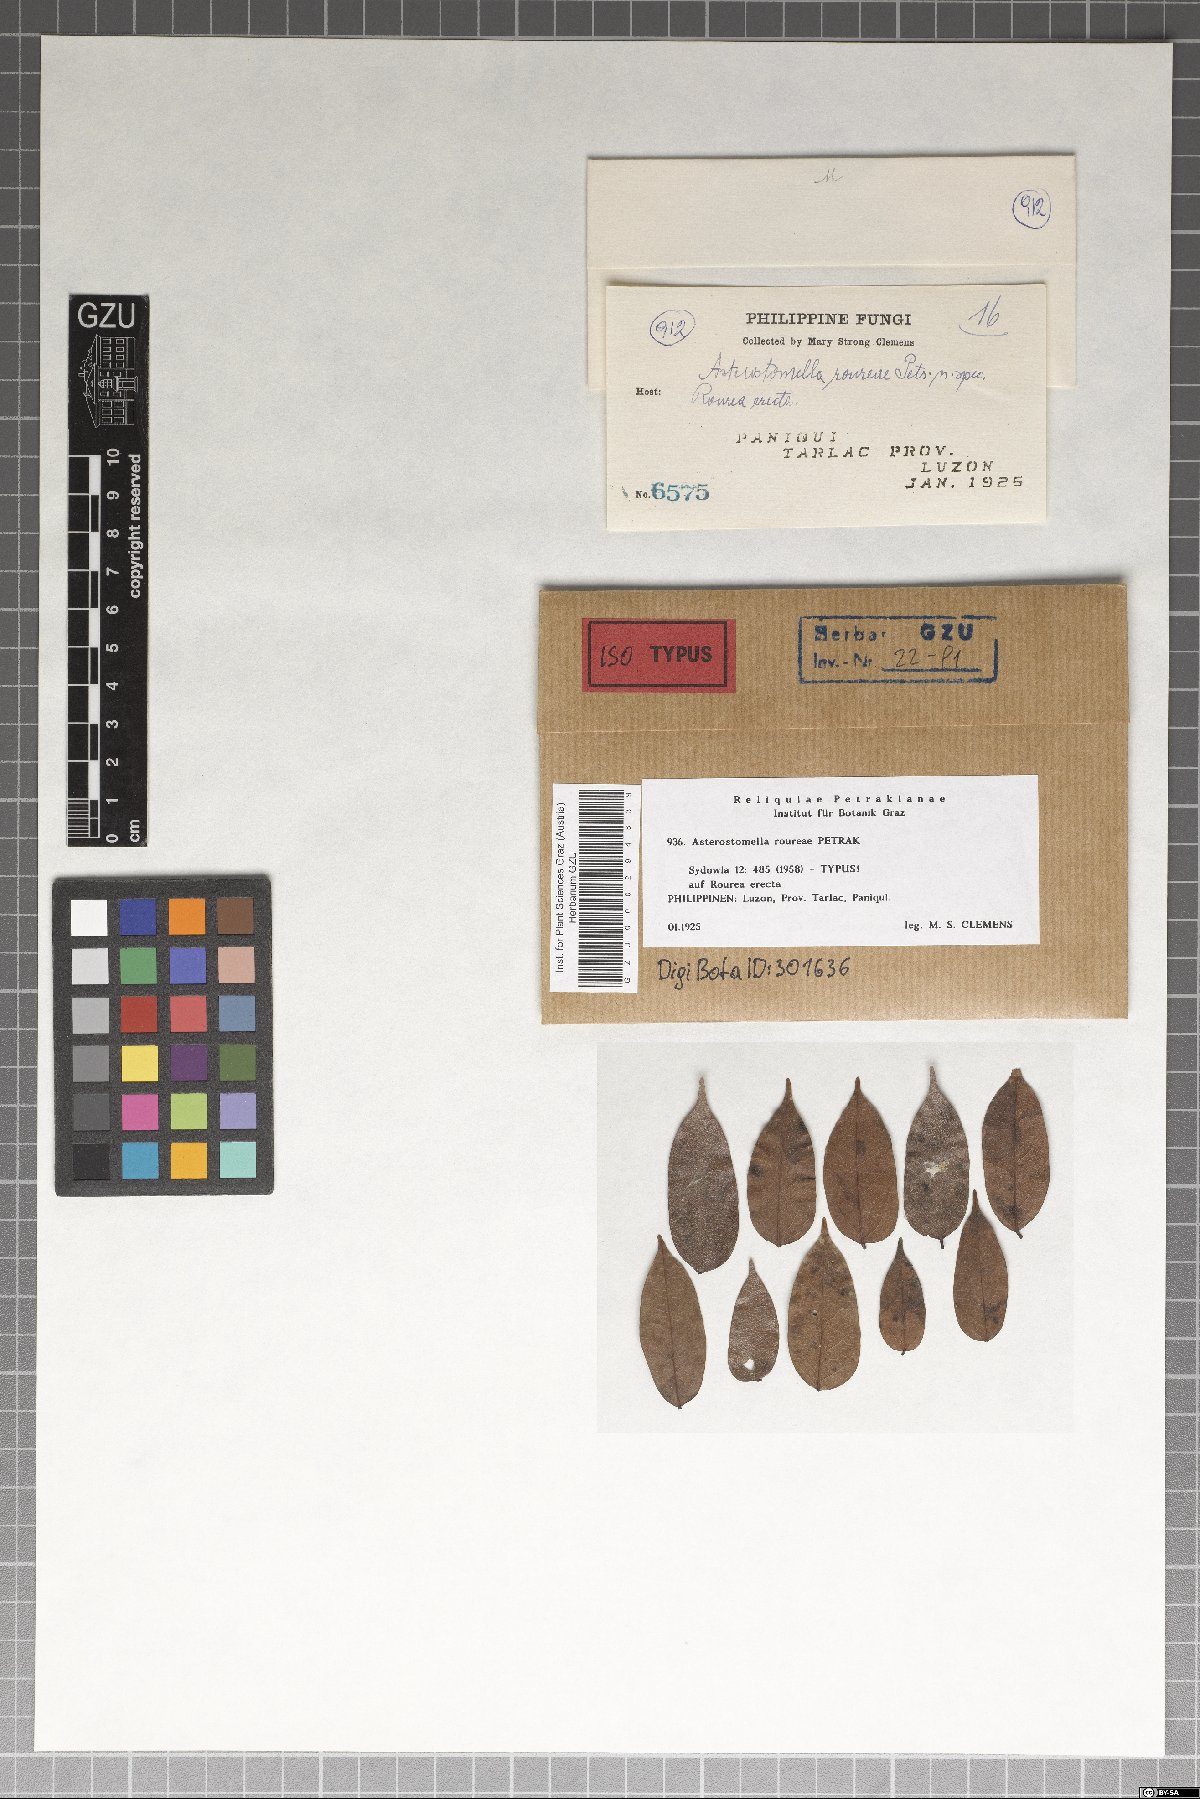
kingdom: Fungi
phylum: Ascomycota
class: Dothideomycetes
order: Asterinales
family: Asterinaceae
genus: Asterostomella
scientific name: Asterostomella roureae
